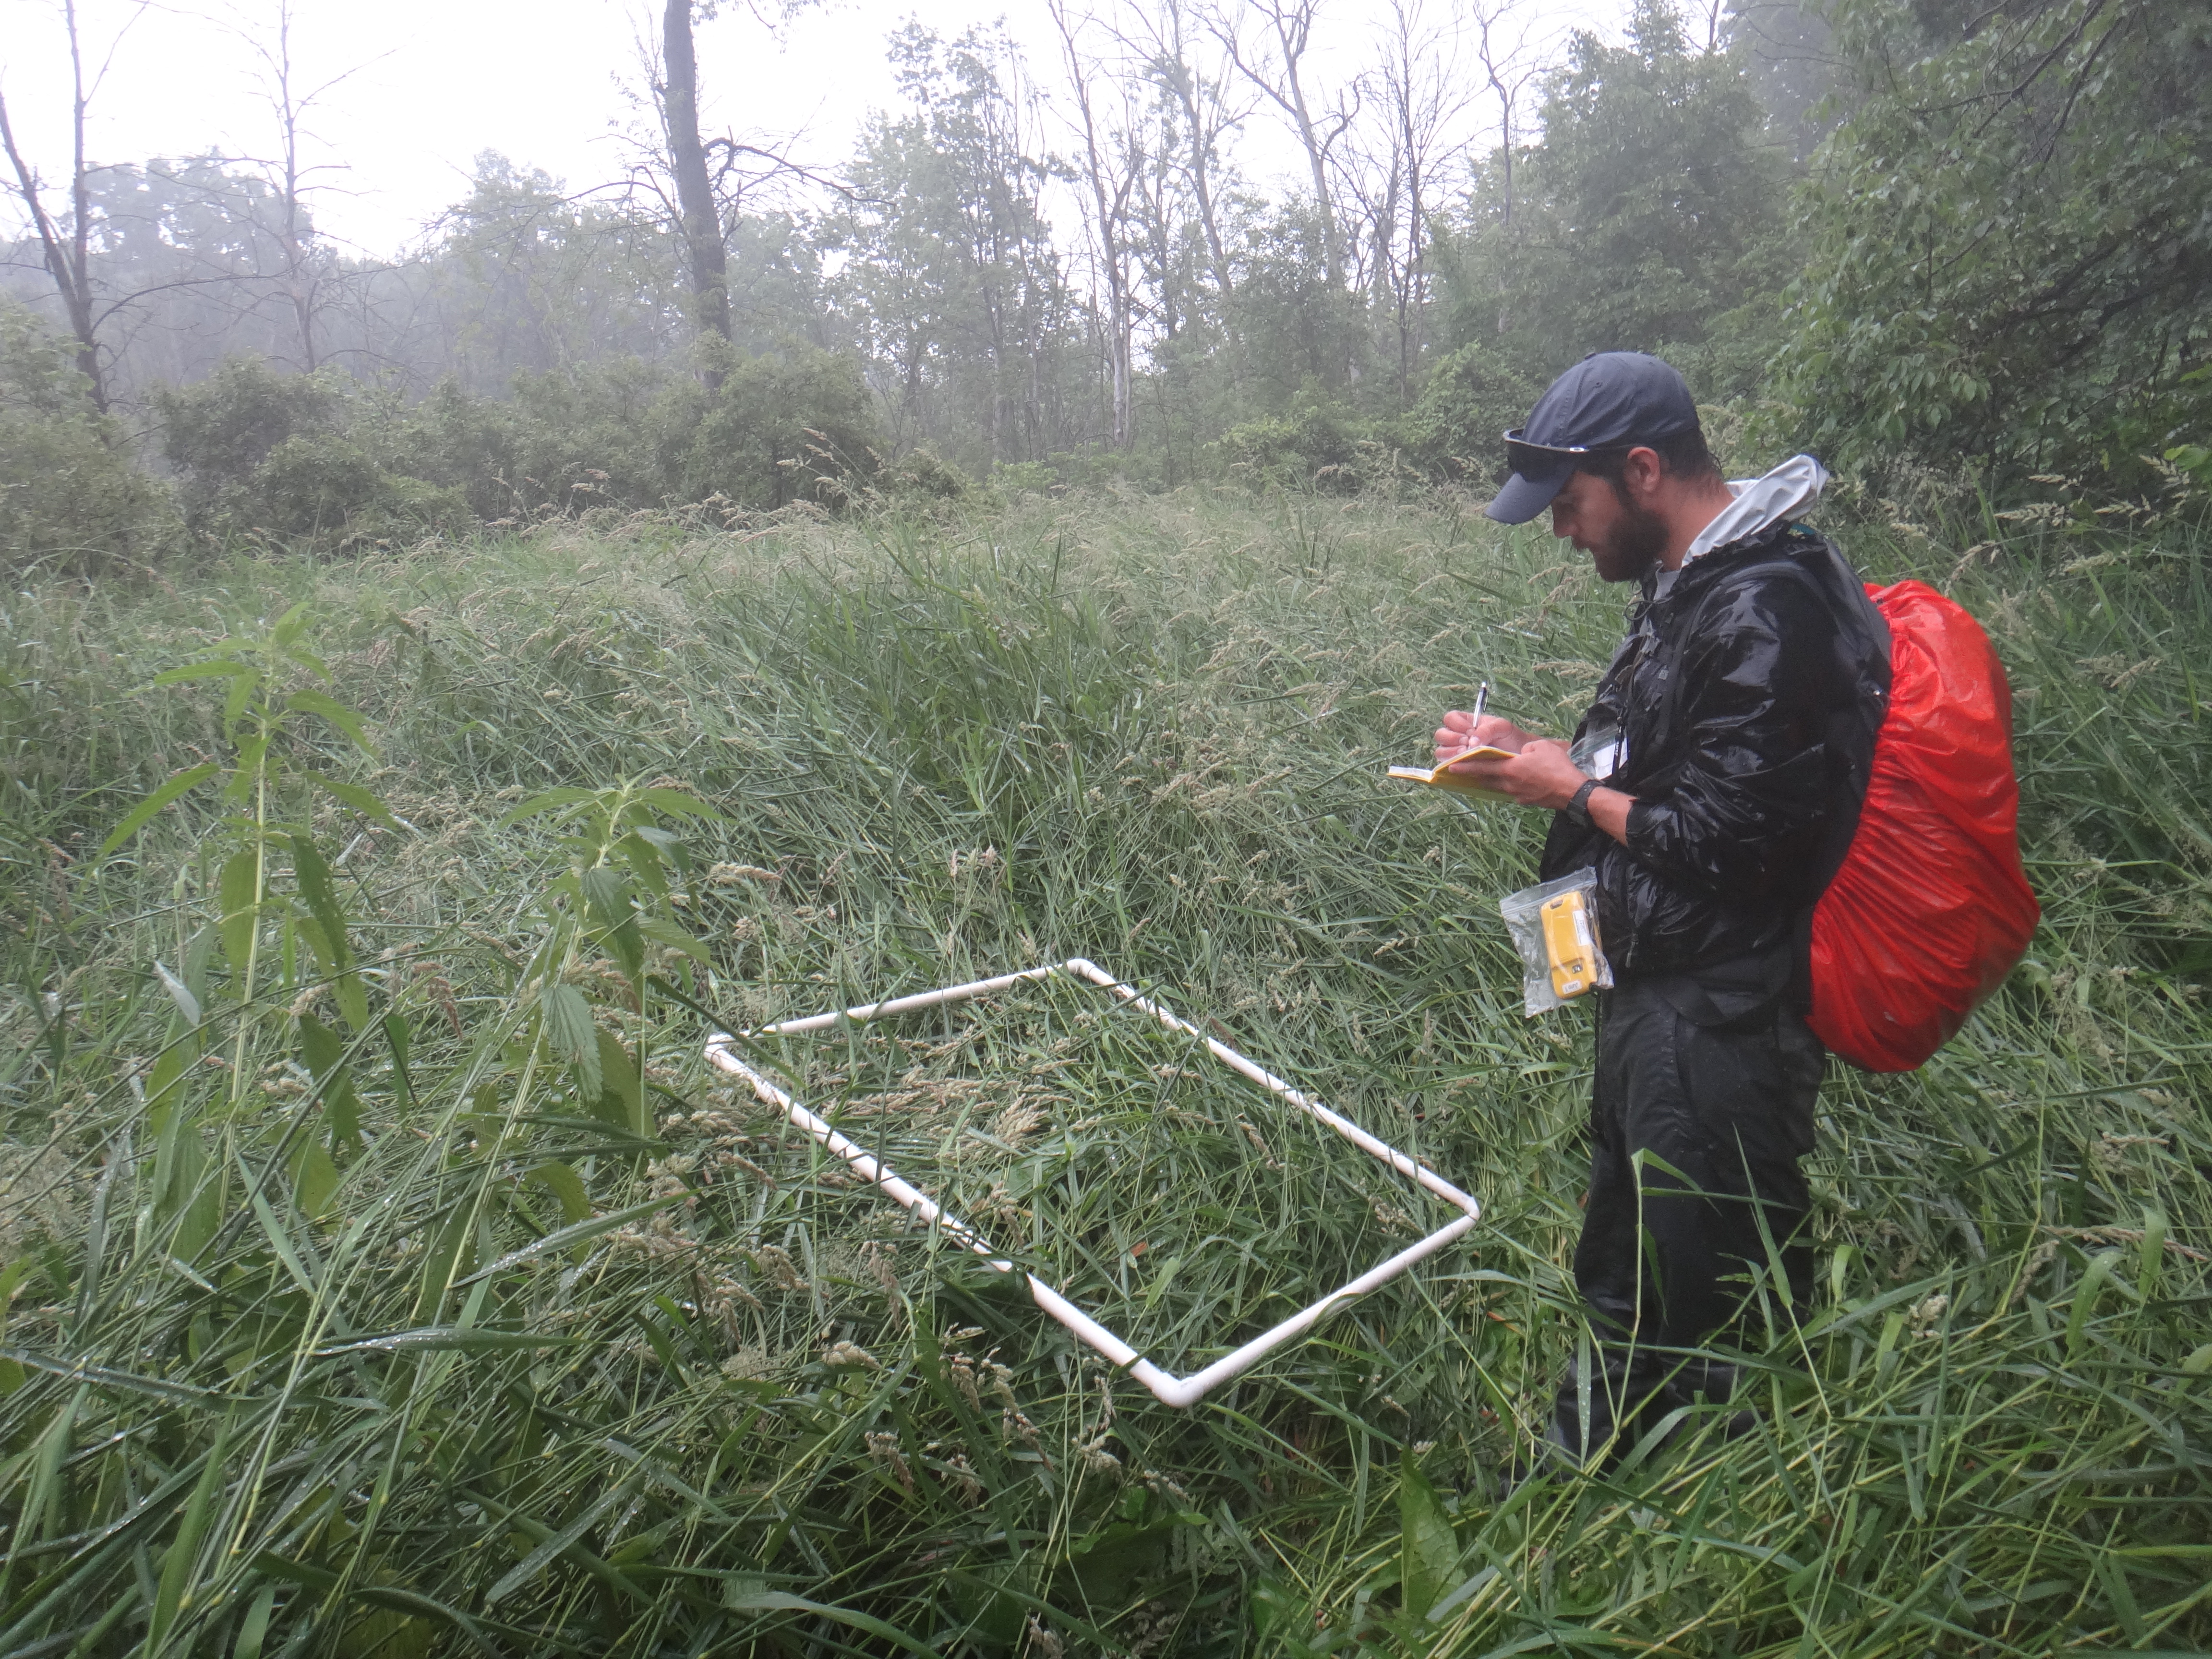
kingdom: Plantae
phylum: Tracheophyta
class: Polypodiopsida
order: Polypodiales
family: Thelypteridaceae
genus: Thelypteris
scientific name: Thelypteris palustris
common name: Marsh fern
